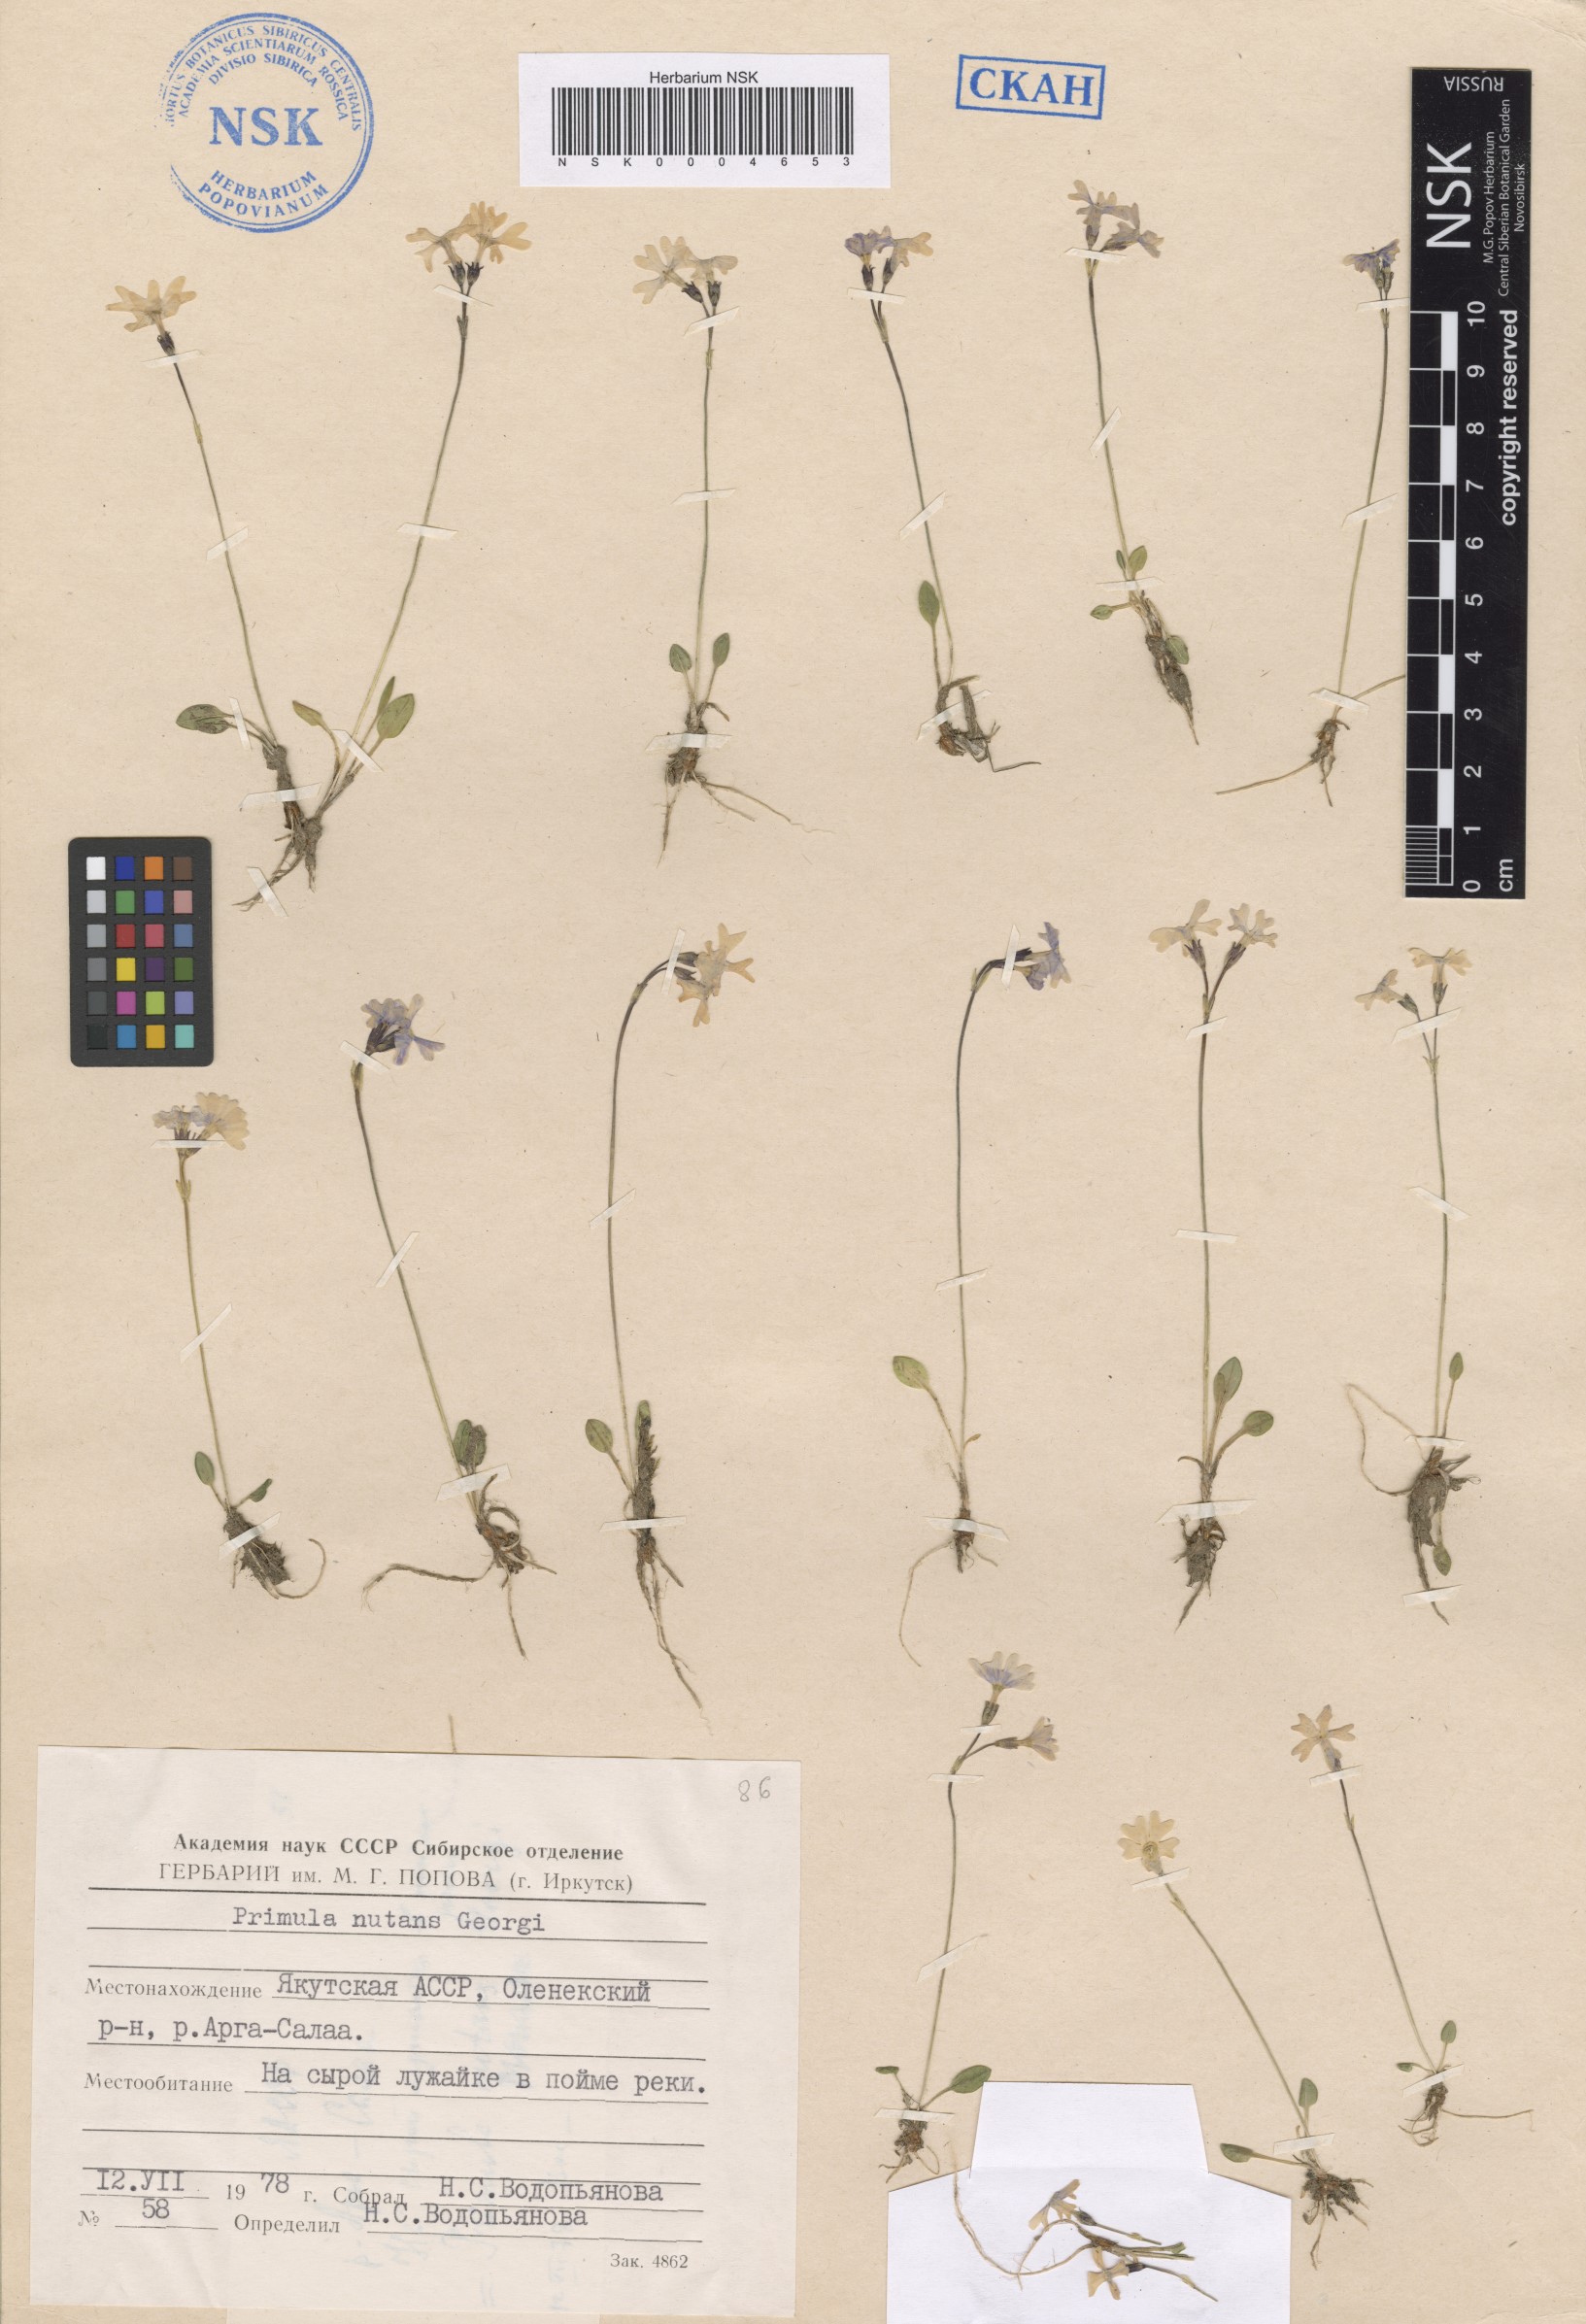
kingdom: Plantae
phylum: Tracheophyta
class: Magnoliopsida
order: Ericales
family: Primulaceae
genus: Primula
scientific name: Primula nutans
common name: Siberian primrose
